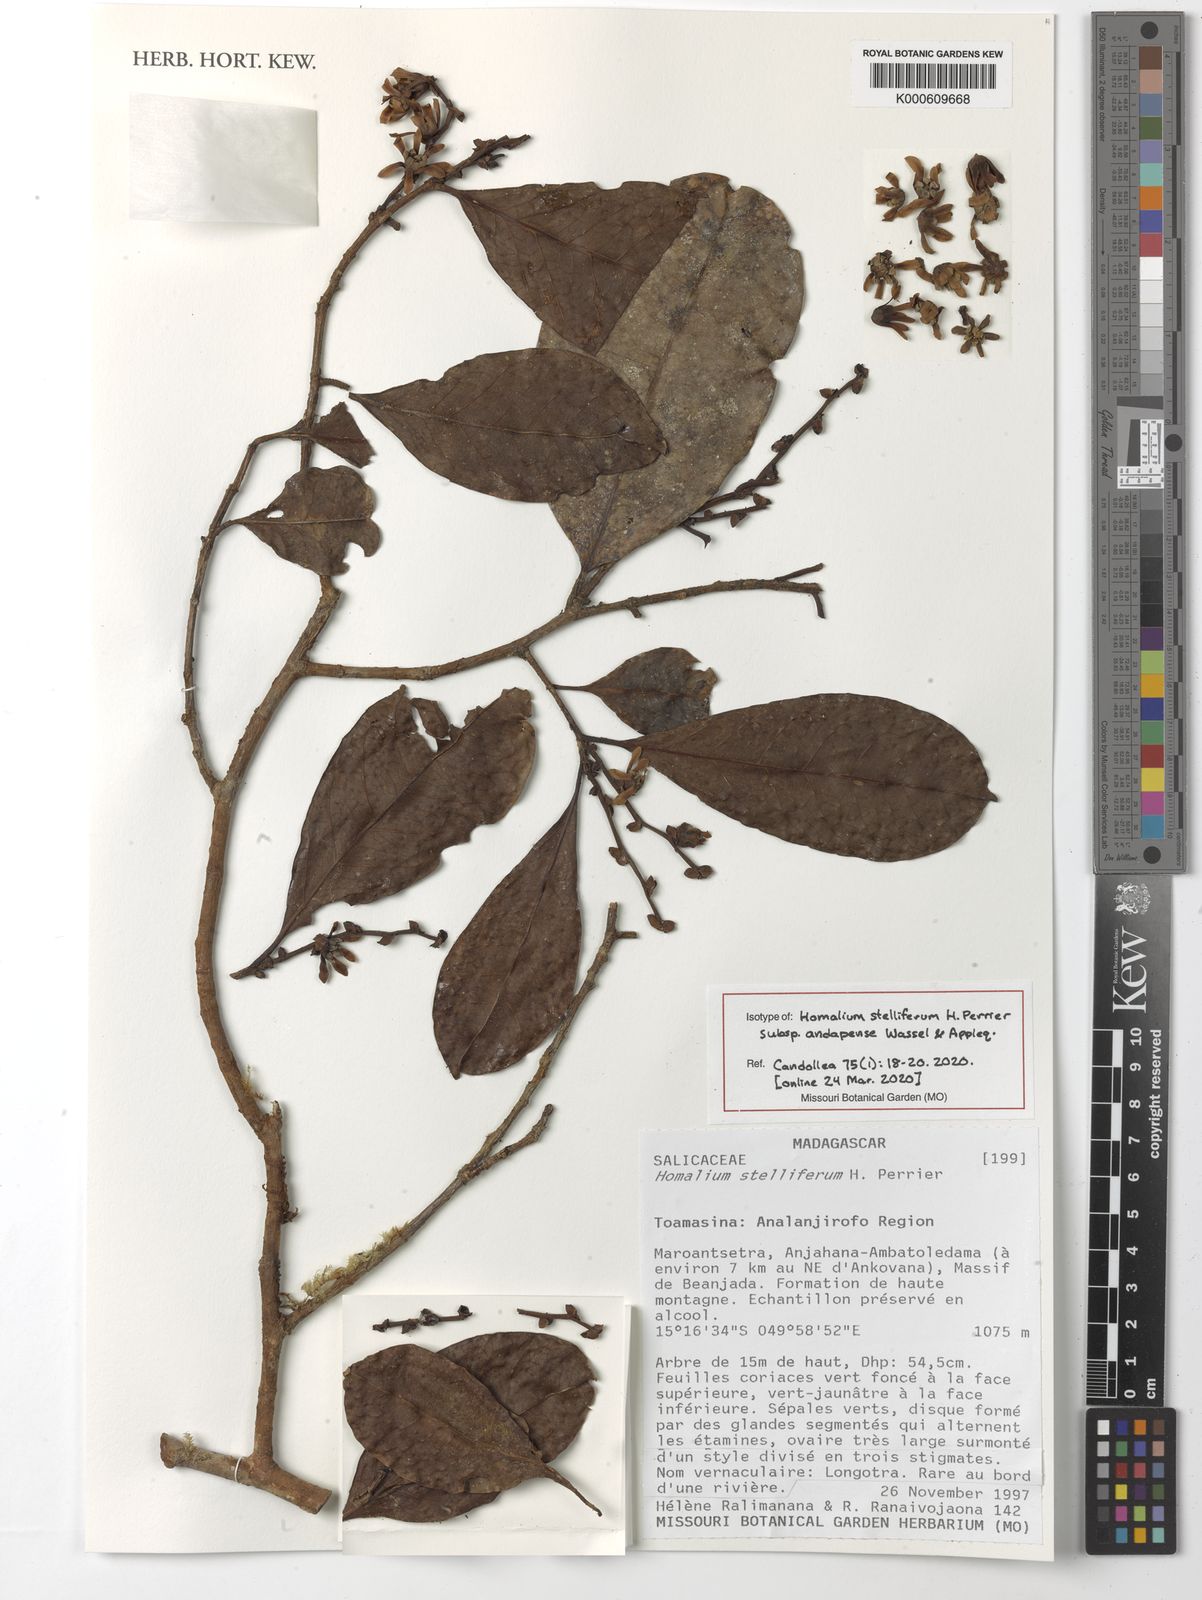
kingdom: Plantae
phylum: Tracheophyta
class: Magnoliopsida
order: Malpighiales
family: Salicaceae
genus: Homalium
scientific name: Homalium stelliferum
